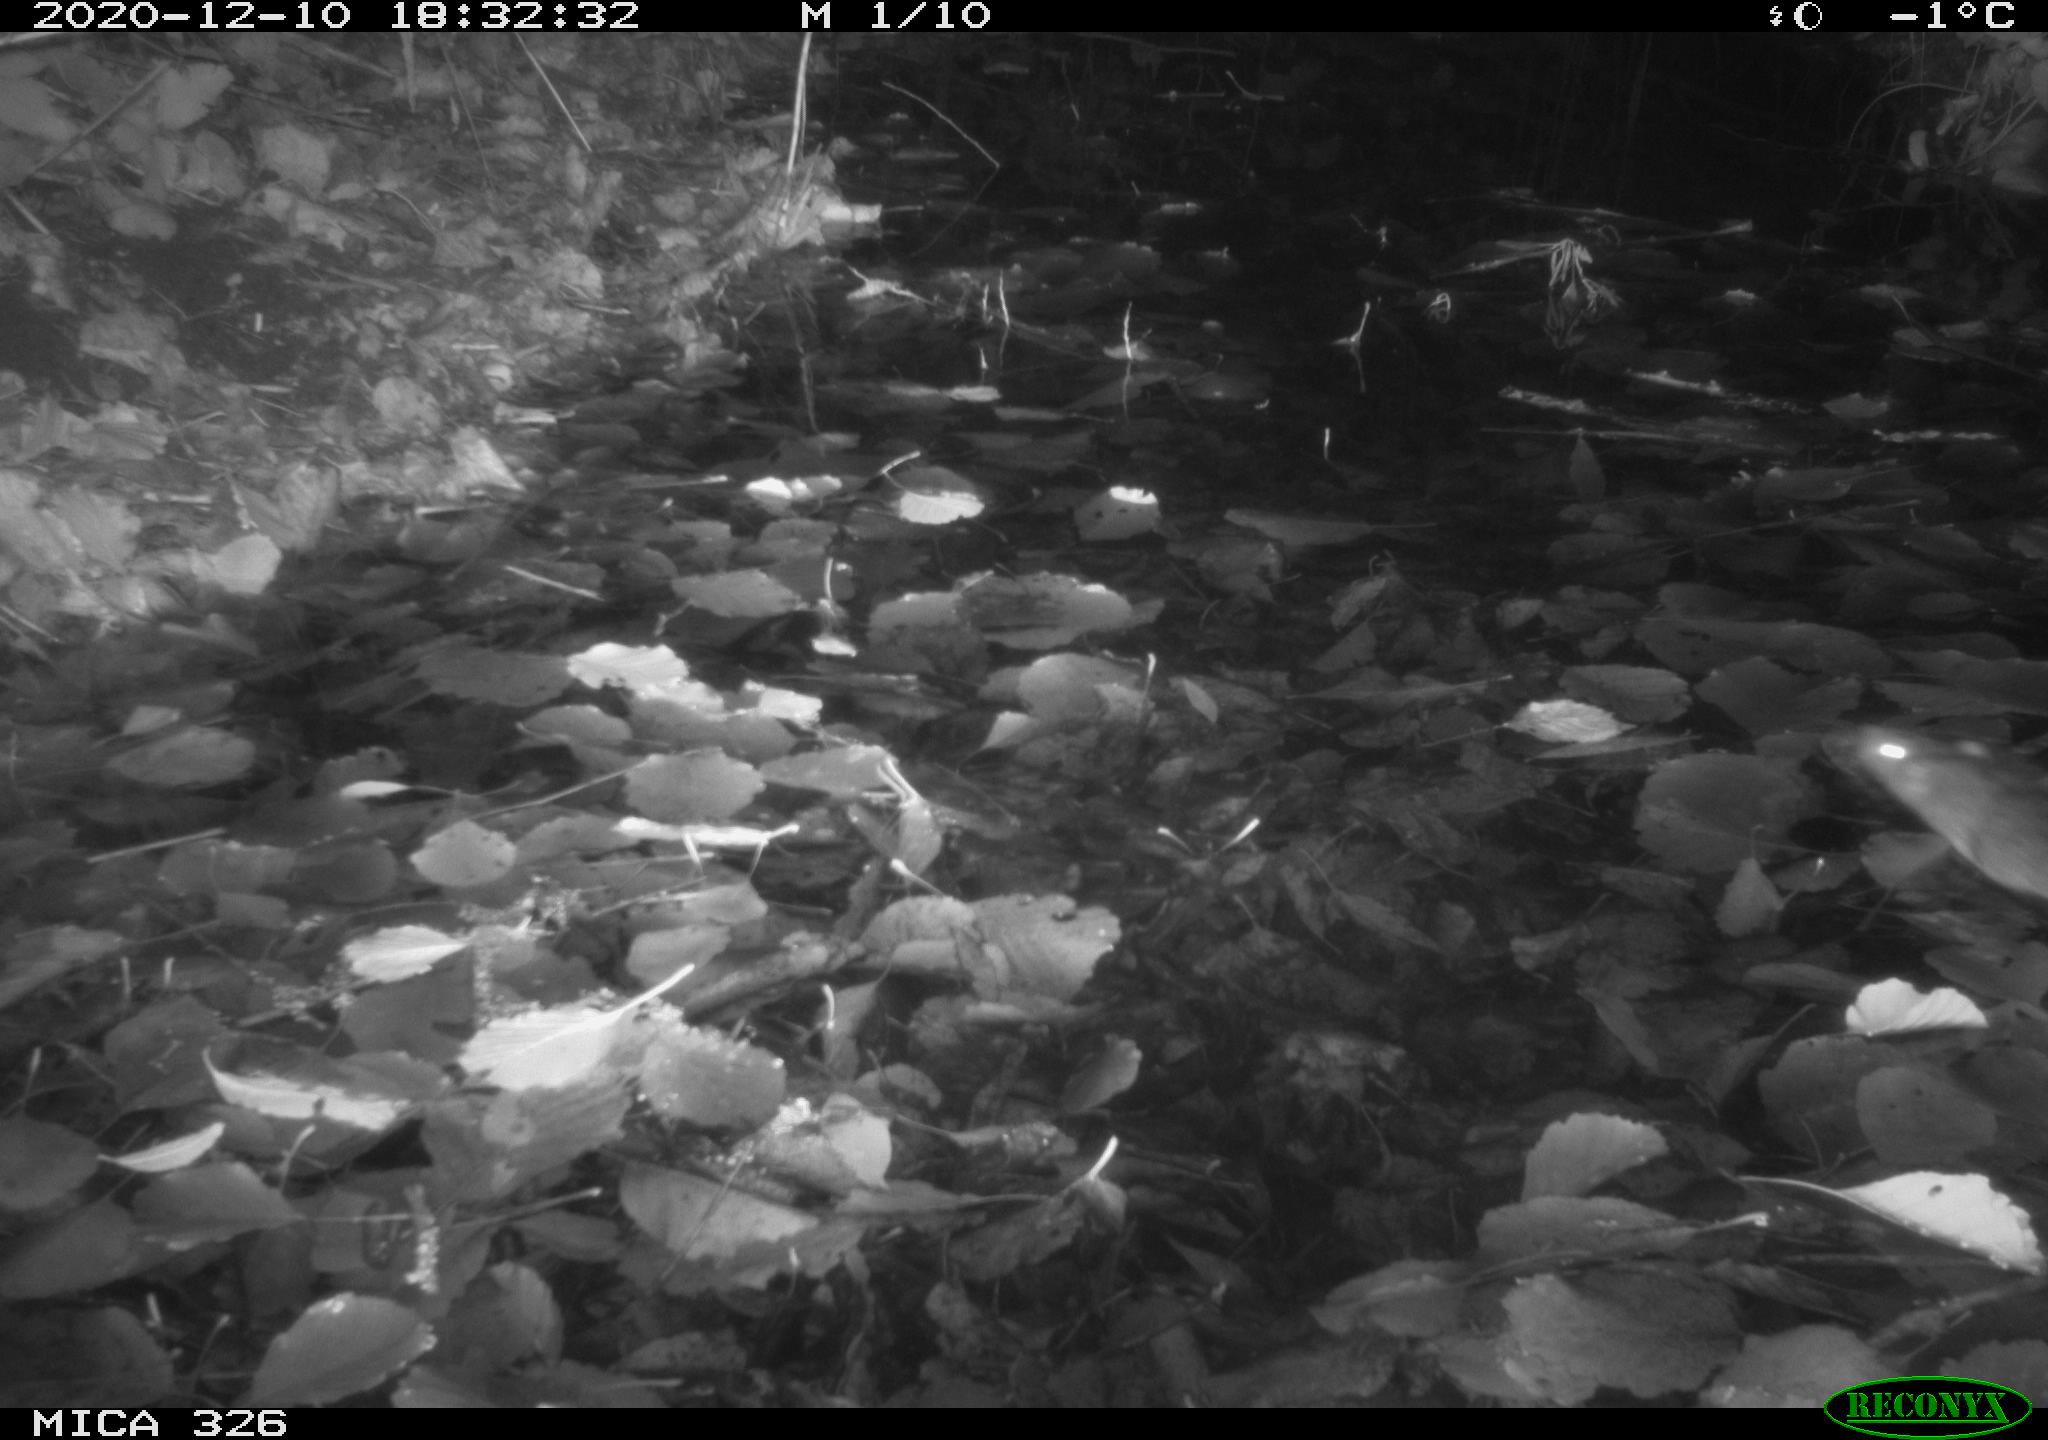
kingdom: Animalia
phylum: Chordata
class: Mammalia
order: Rodentia
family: Muridae
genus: Rattus
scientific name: Rattus norvegicus
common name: Brown rat
